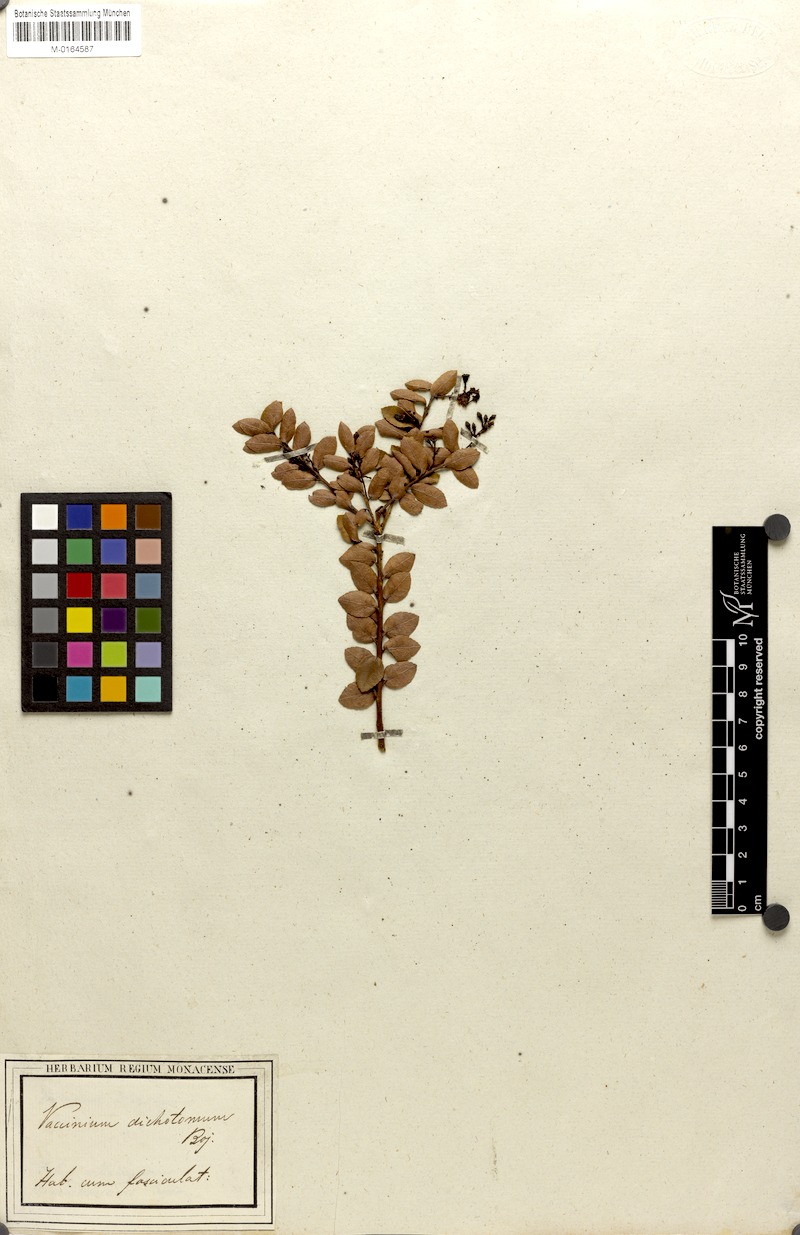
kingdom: Plantae
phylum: Tracheophyta
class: Magnoliopsida
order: Ericales
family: Ericaceae
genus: Vaccinium
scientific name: Vaccinium madagascariense
